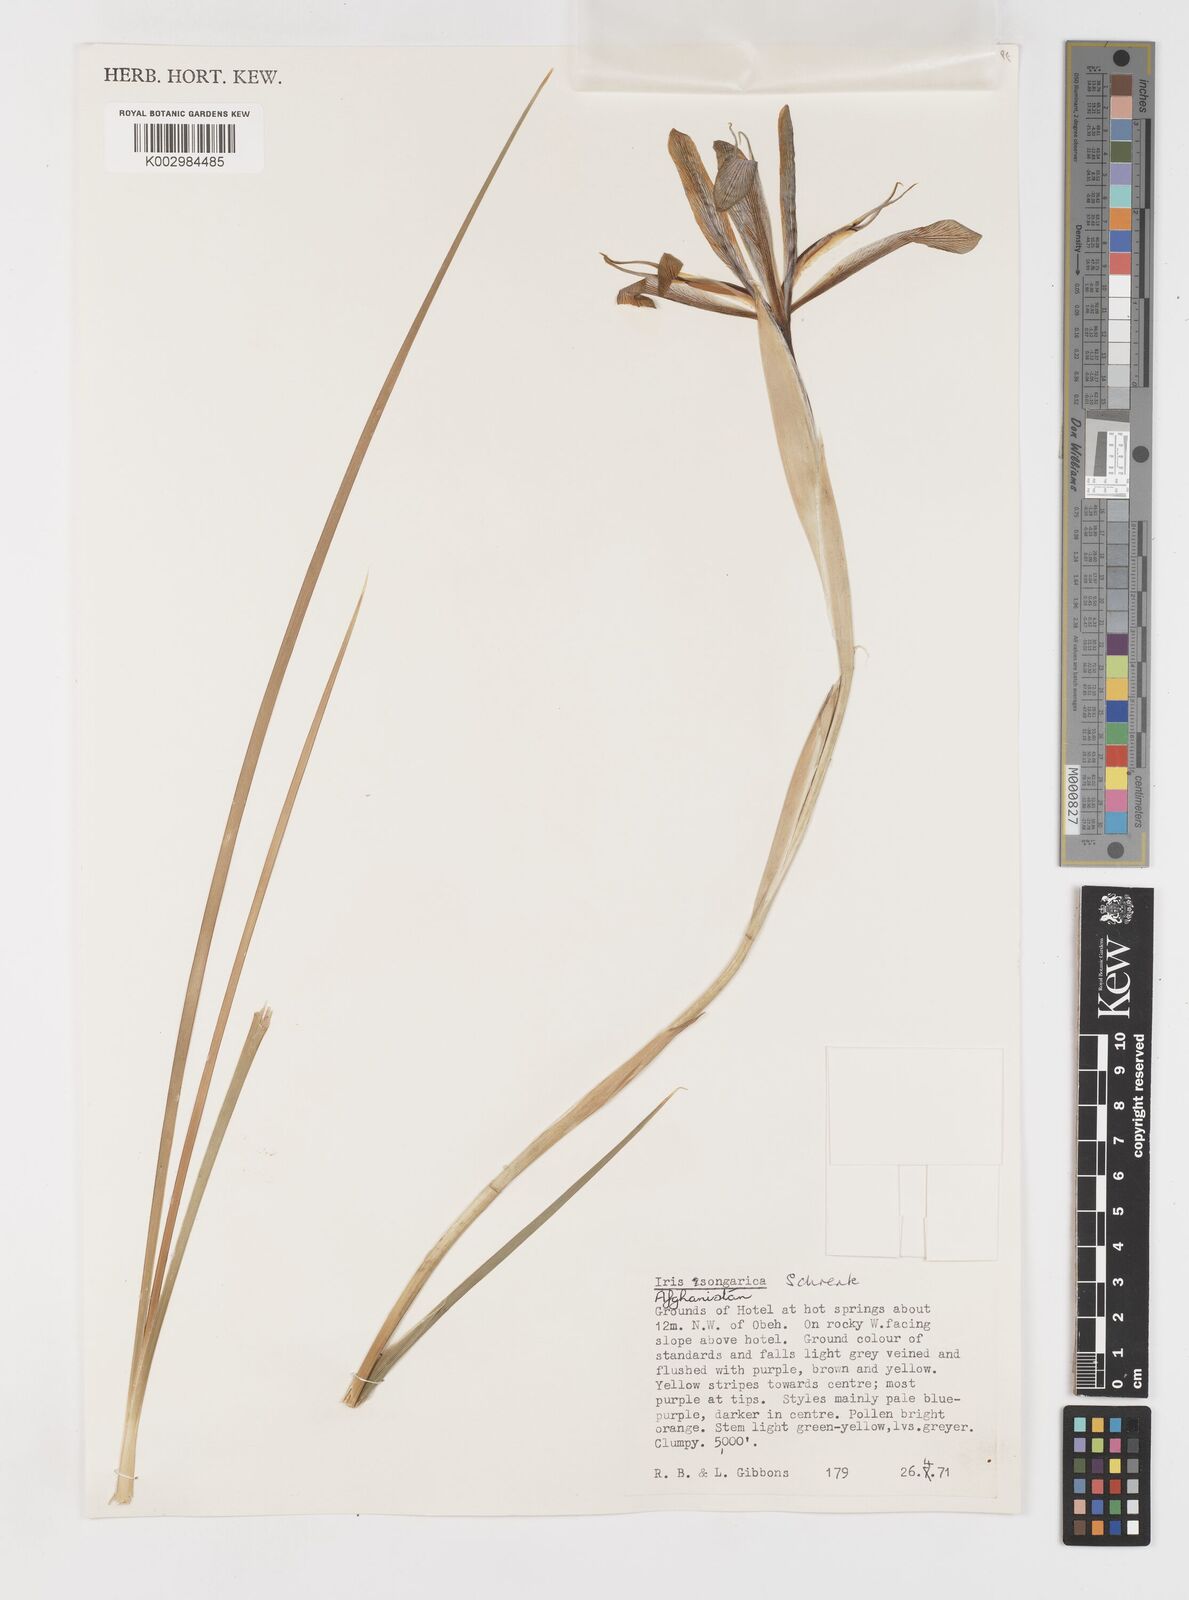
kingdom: Plantae
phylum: Tracheophyta
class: Liliopsida
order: Asparagales
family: Iridaceae
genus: Iris
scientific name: Iris songarica
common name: Songar iris
